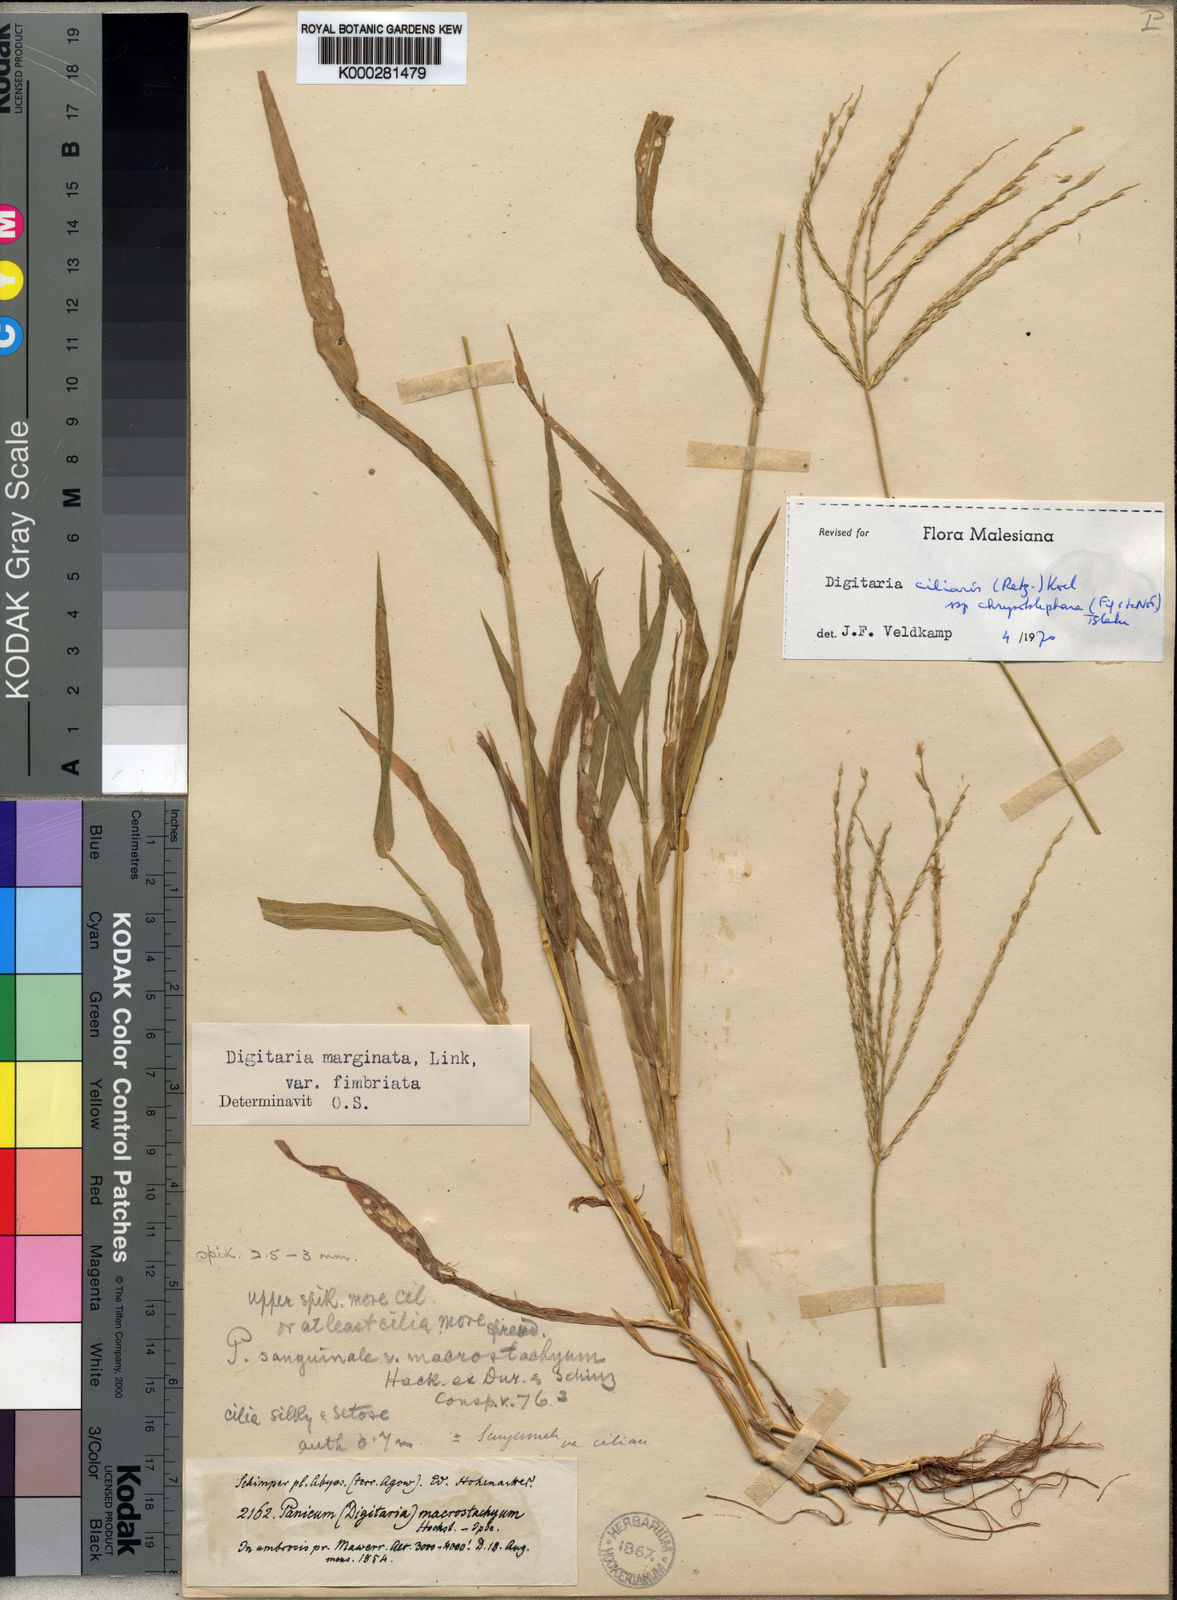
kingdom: Plantae
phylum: Tracheophyta
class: Liliopsida
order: Poales
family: Poaceae
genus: Digitaria
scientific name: Digitaria ciliaris
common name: Tropical finger-grass
